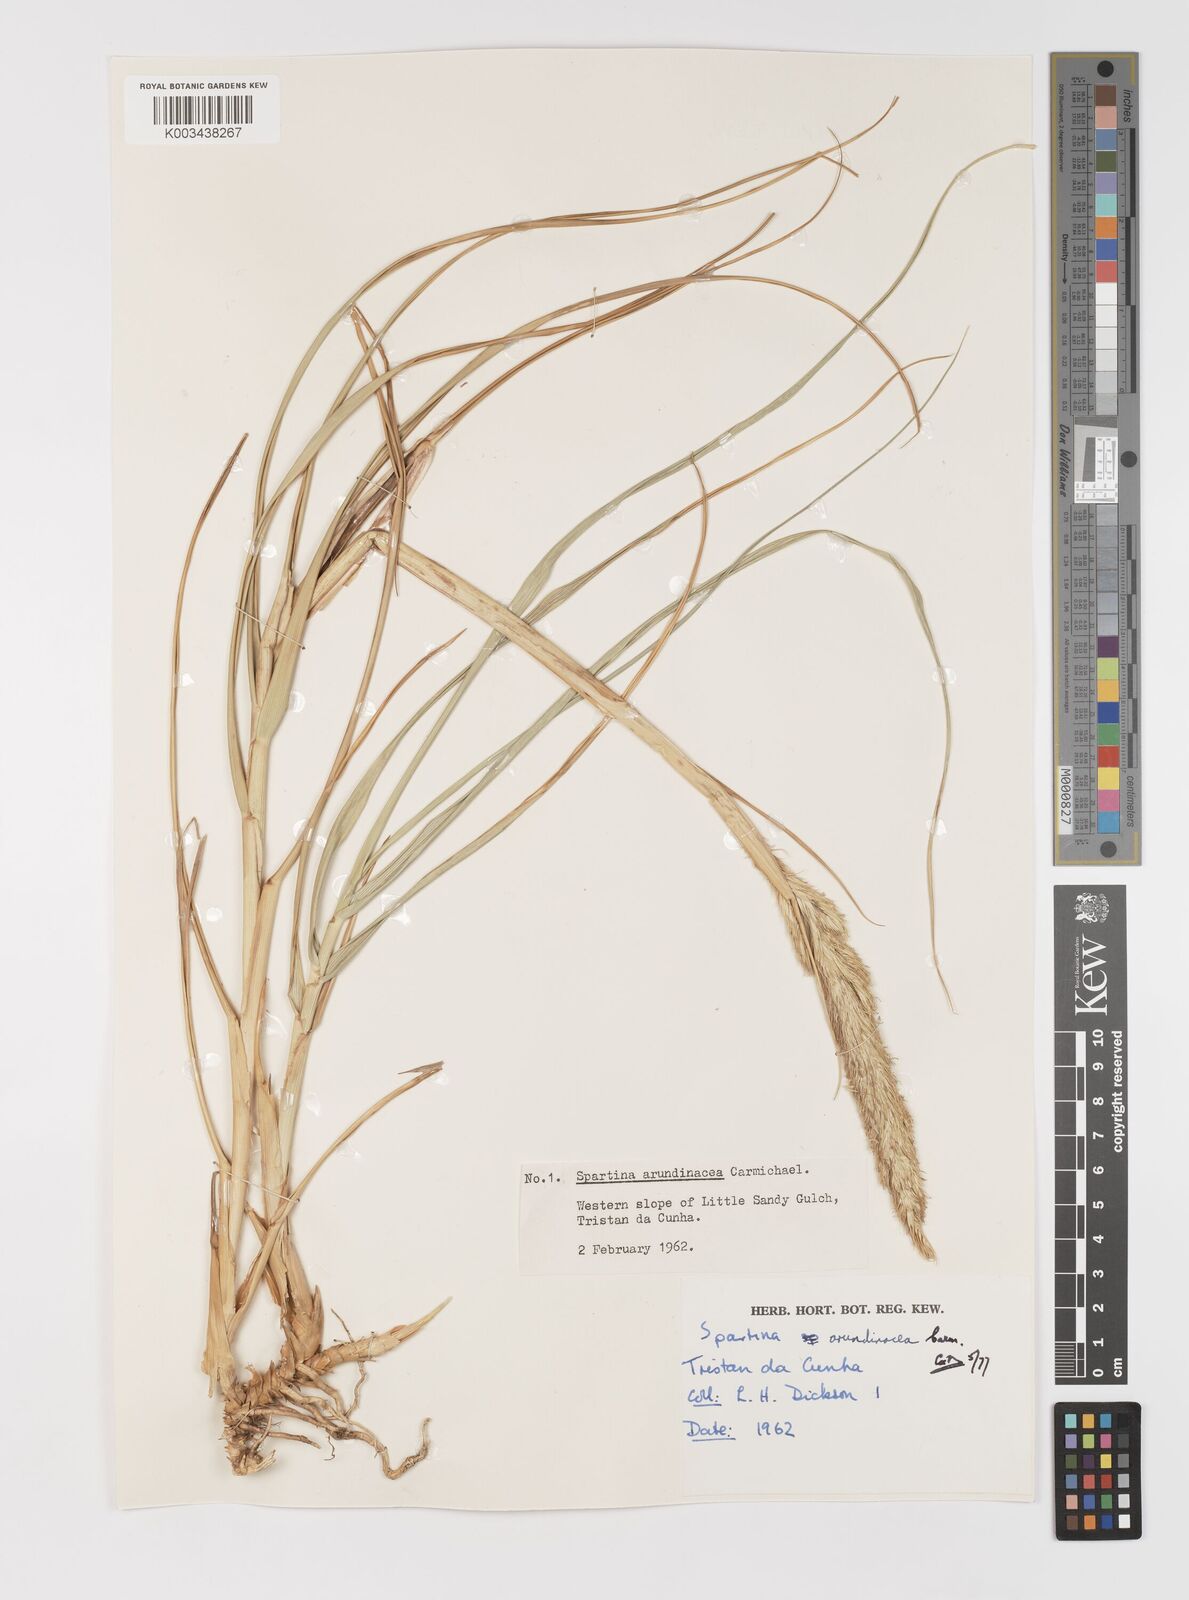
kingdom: Plantae
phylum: Tracheophyta
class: Liliopsida
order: Poales
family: Poaceae
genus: Sporobolus
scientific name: Sporobolus mobberleyanus
